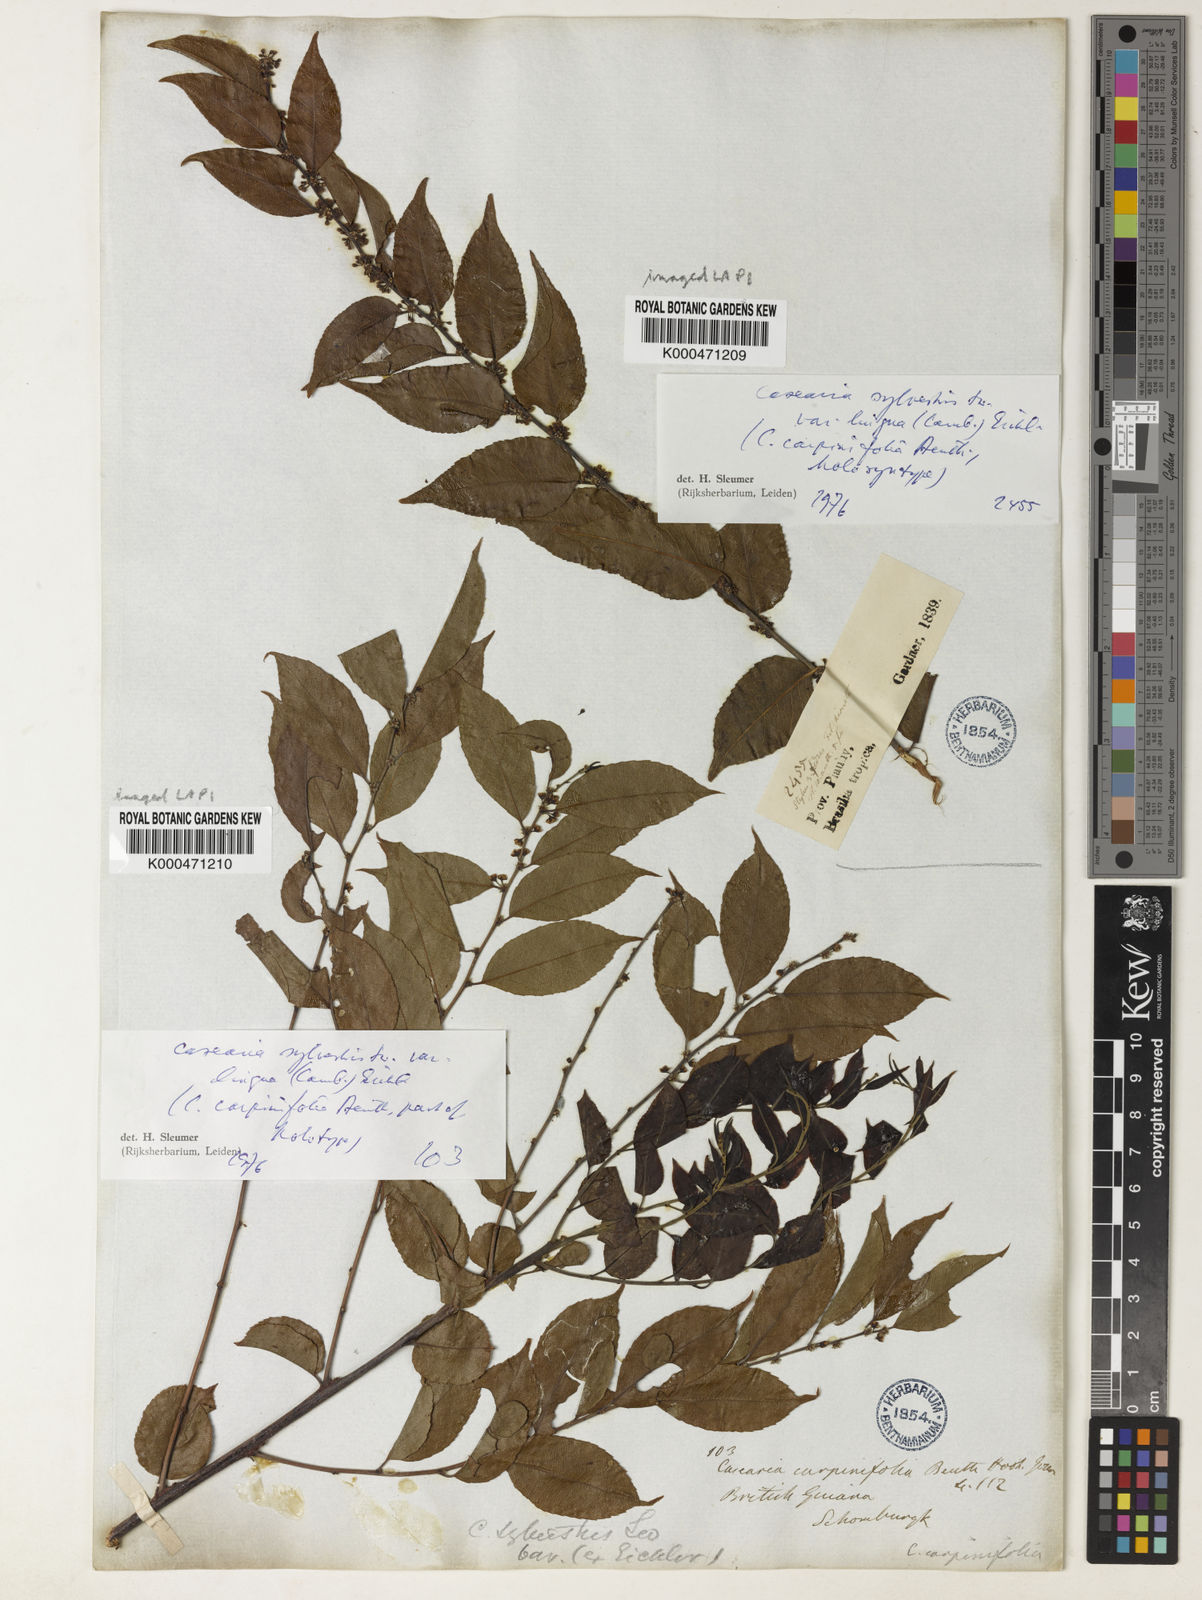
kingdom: Plantae
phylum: Tracheophyta
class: Magnoliopsida
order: Malpighiales
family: Salicaceae
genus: Casearia
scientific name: Casearia sylvestris
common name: Wild sage
